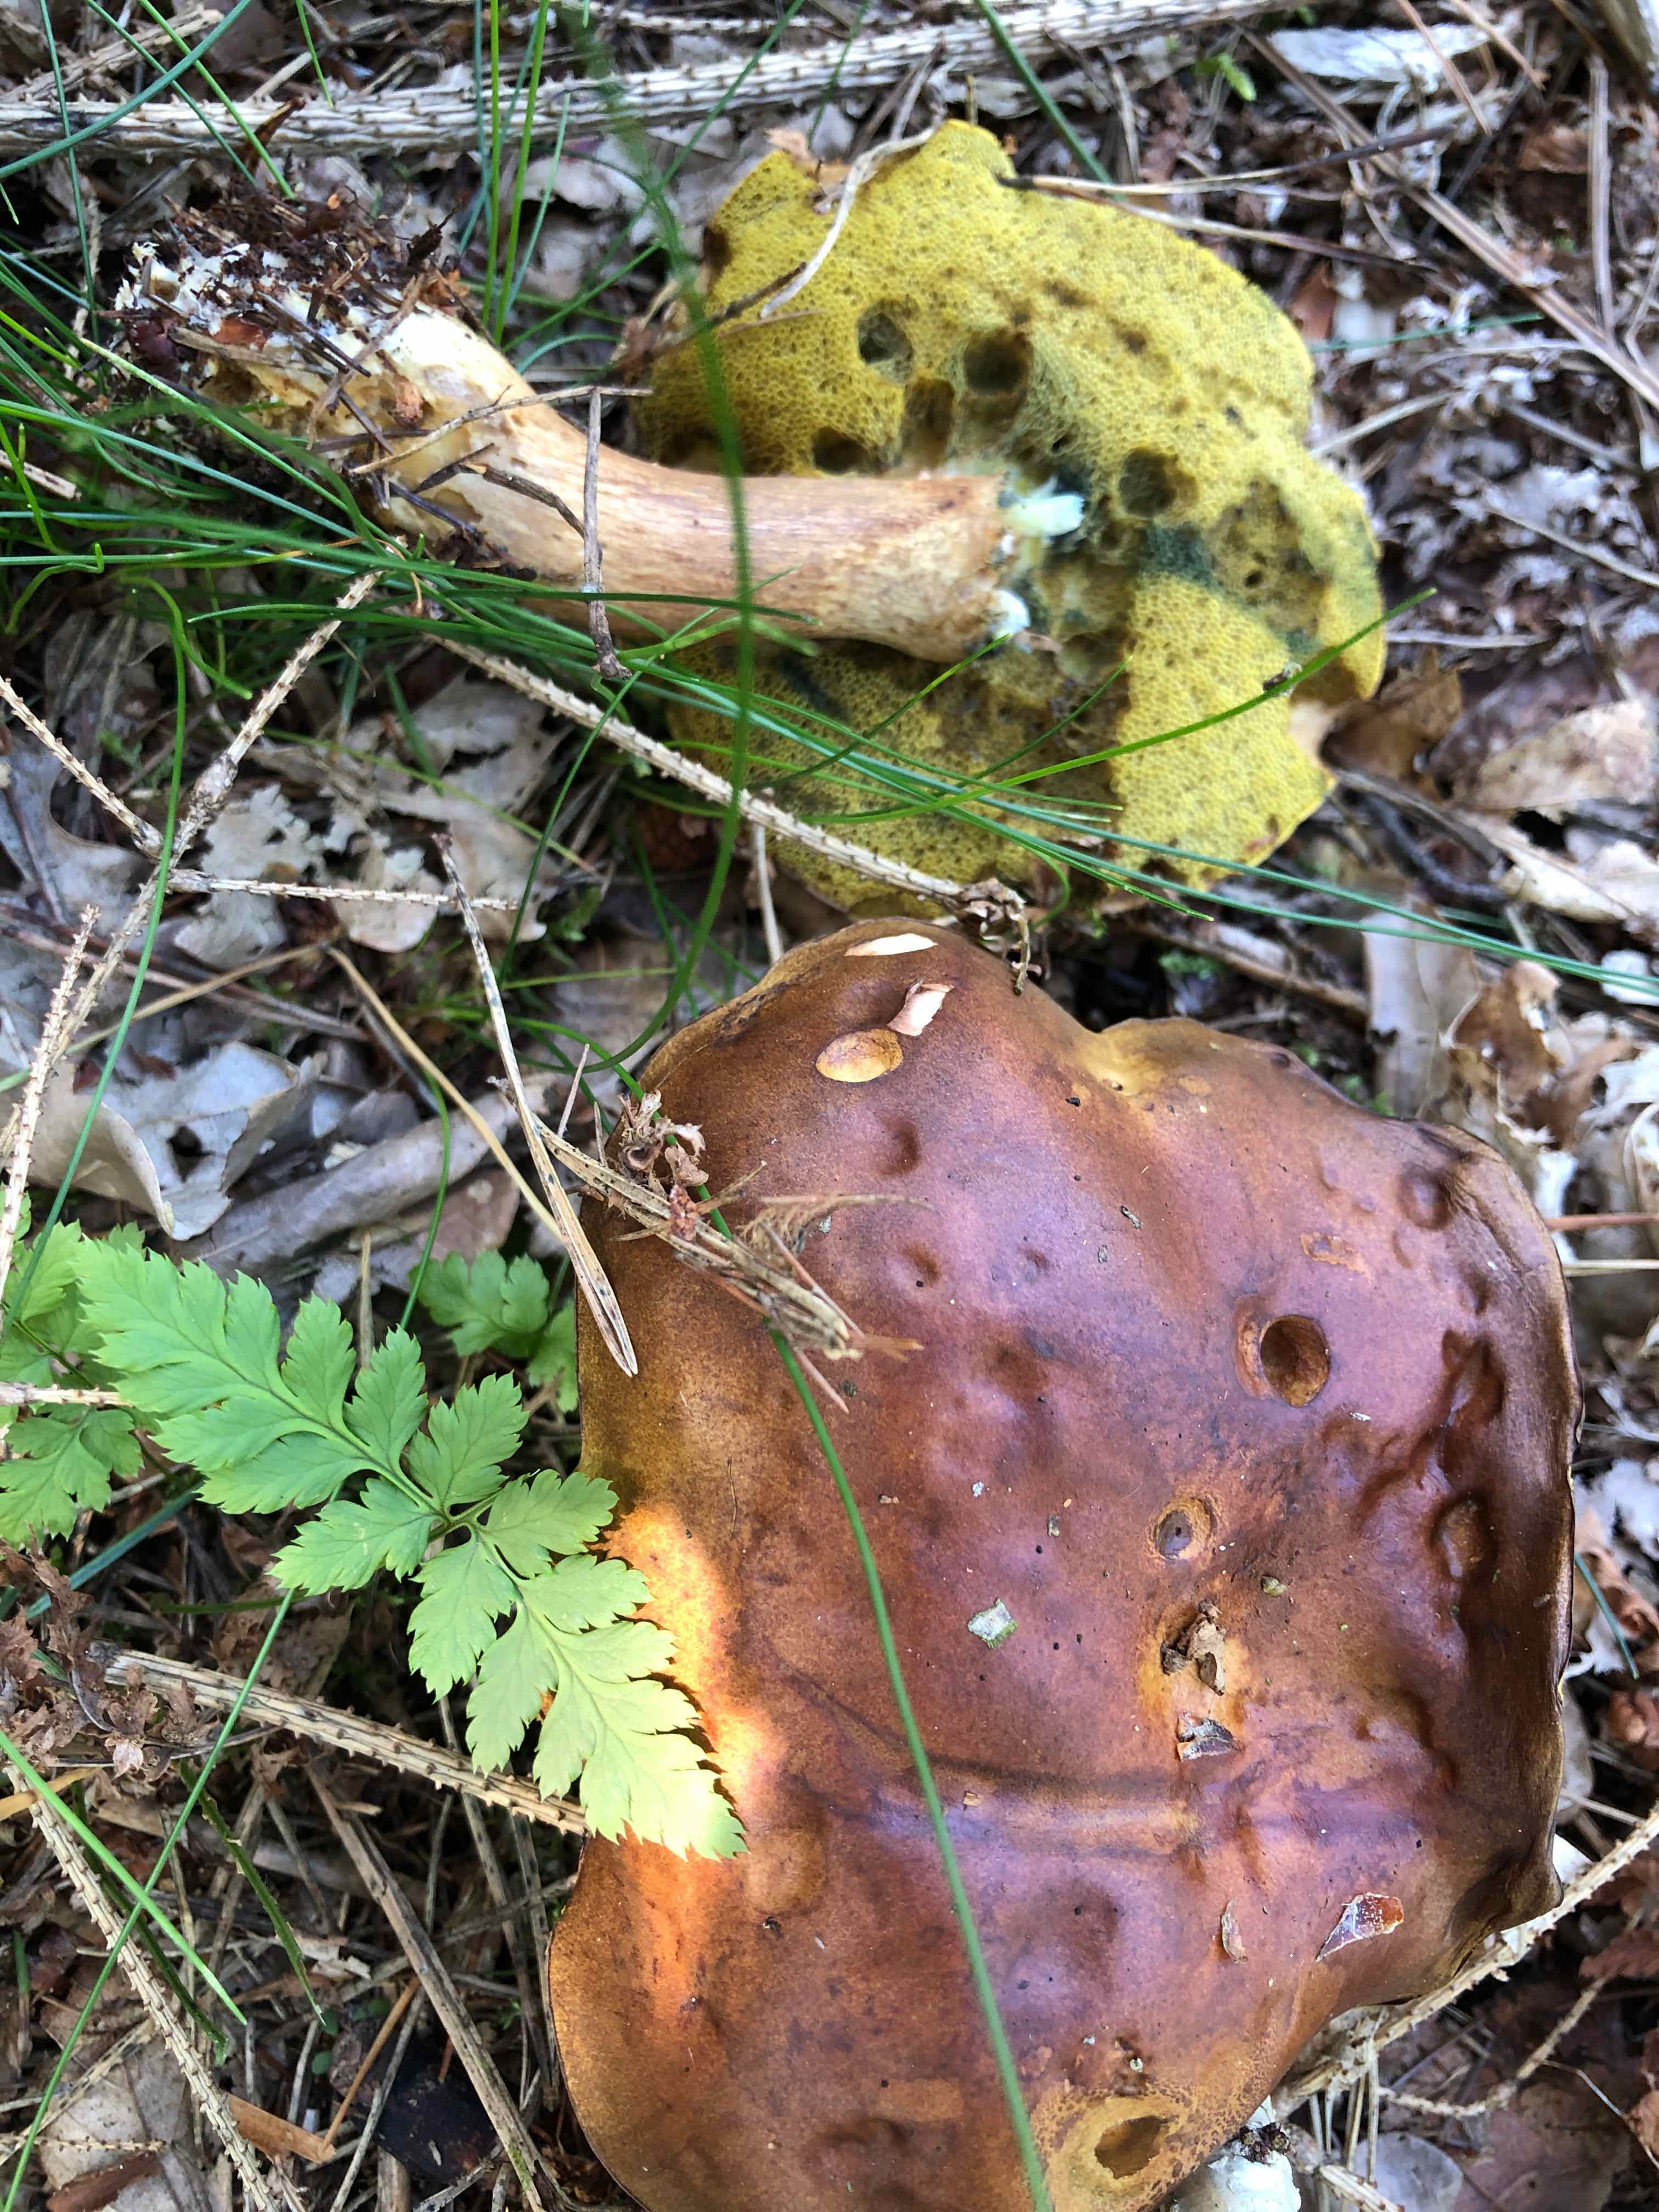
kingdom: Fungi
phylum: Basidiomycota
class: Agaricomycetes
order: Boletales
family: Boletaceae
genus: Imleria
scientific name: Imleria badia
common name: brunstokket rørhat
